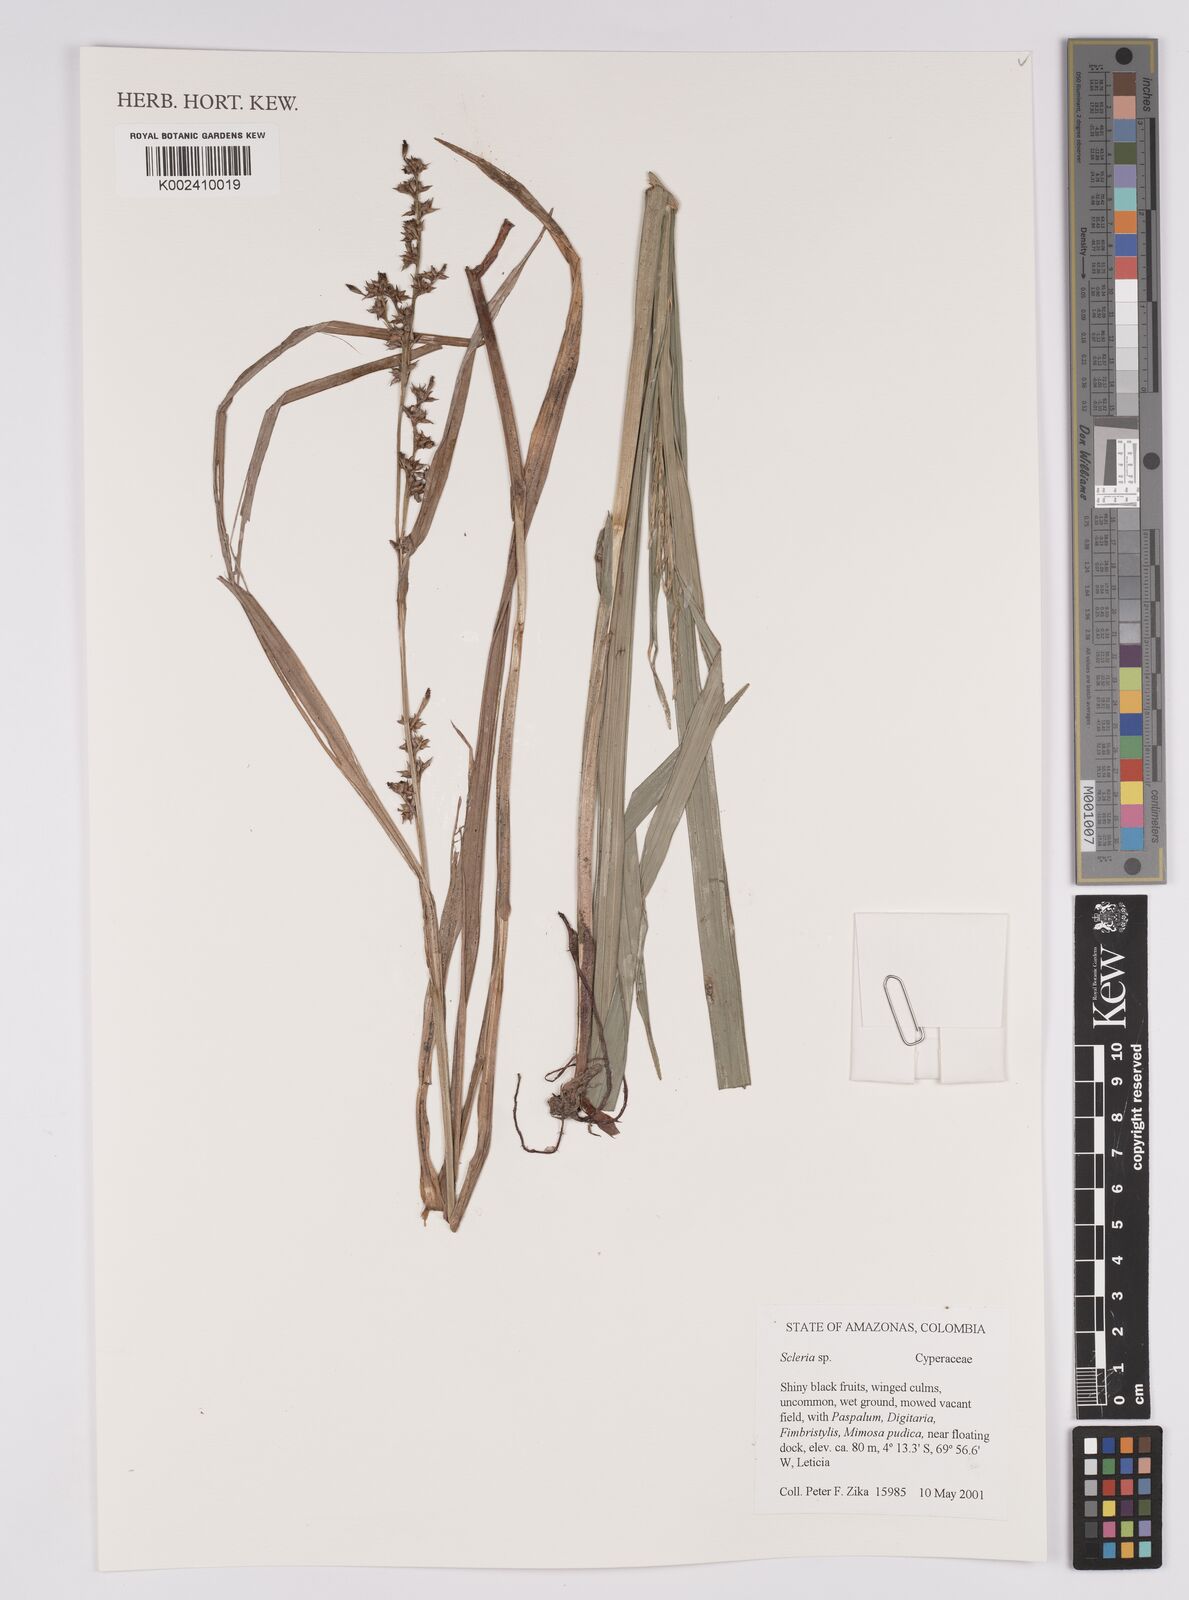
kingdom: Plantae
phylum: Tracheophyta
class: Liliopsida
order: Poales
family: Cyperaceae
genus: Scleria
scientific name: Scleria
